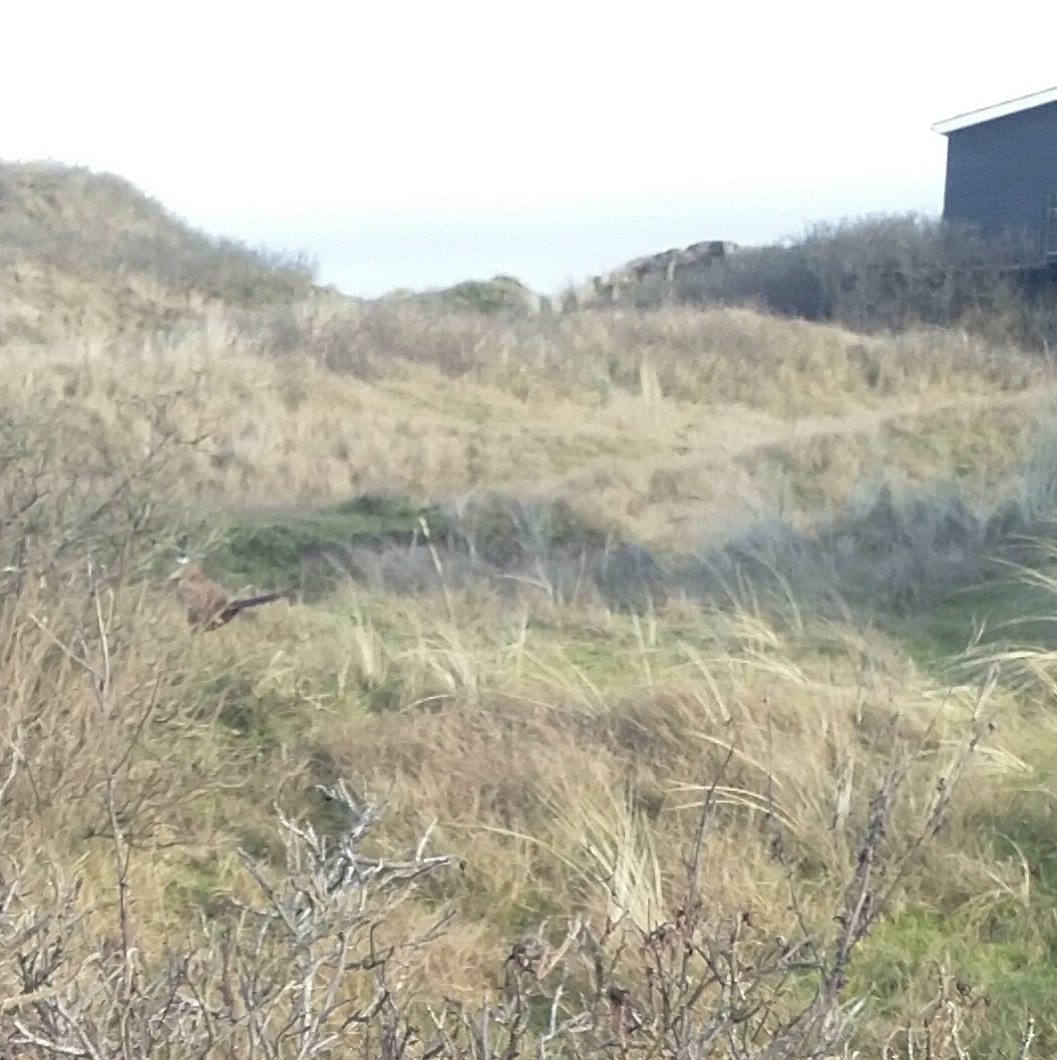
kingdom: Animalia
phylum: Chordata
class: Aves
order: Galliformes
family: Phasianidae
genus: Phasianus
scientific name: Phasianus colchicus
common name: Fasan
